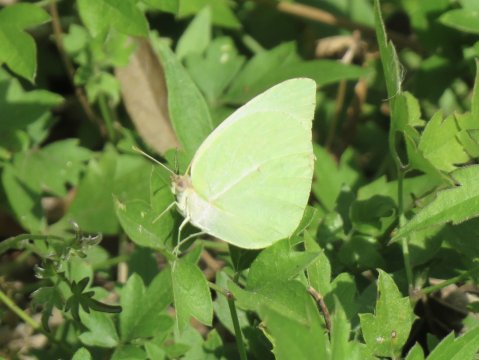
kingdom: Animalia
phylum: Arthropoda
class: Insecta
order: Lepidoptera
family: Pieridae
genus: Kricogonia
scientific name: Kricogonia lyside
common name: Lyside Sulphur
